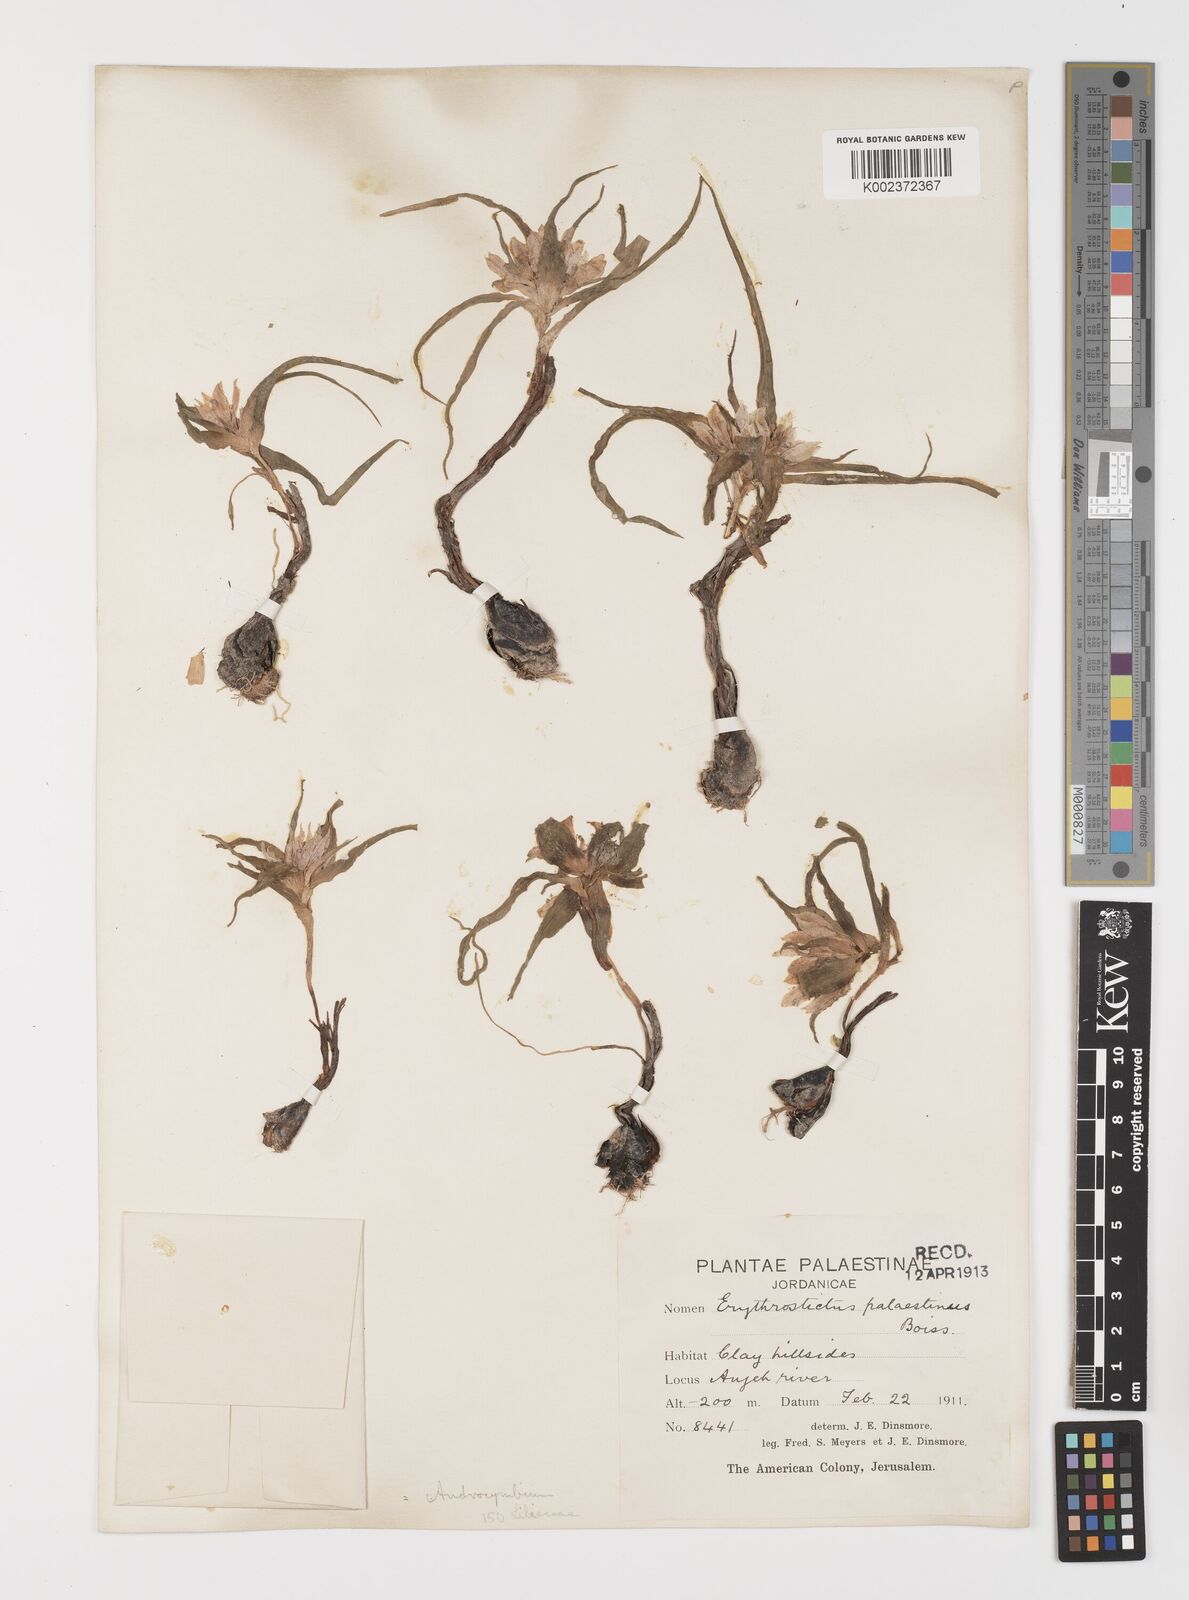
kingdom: Plantae
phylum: Tracheophyta
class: Liliopsida
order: Liliales
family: Colchicaceae
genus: Colchicum
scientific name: Colchicum palaestinum
